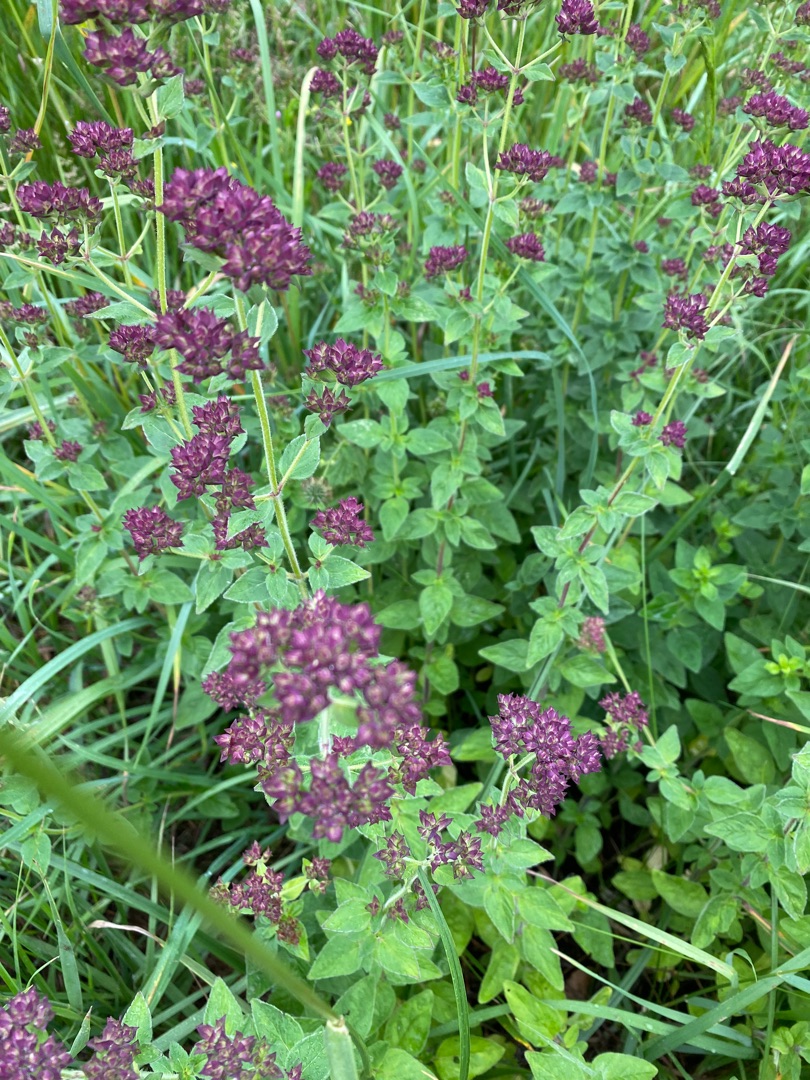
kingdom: Plantae
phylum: Tracheophyta
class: Magnoliopsida
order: Lamiales
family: Lamiaceae
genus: Origanum
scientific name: Origanum vulgare
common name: Merian
